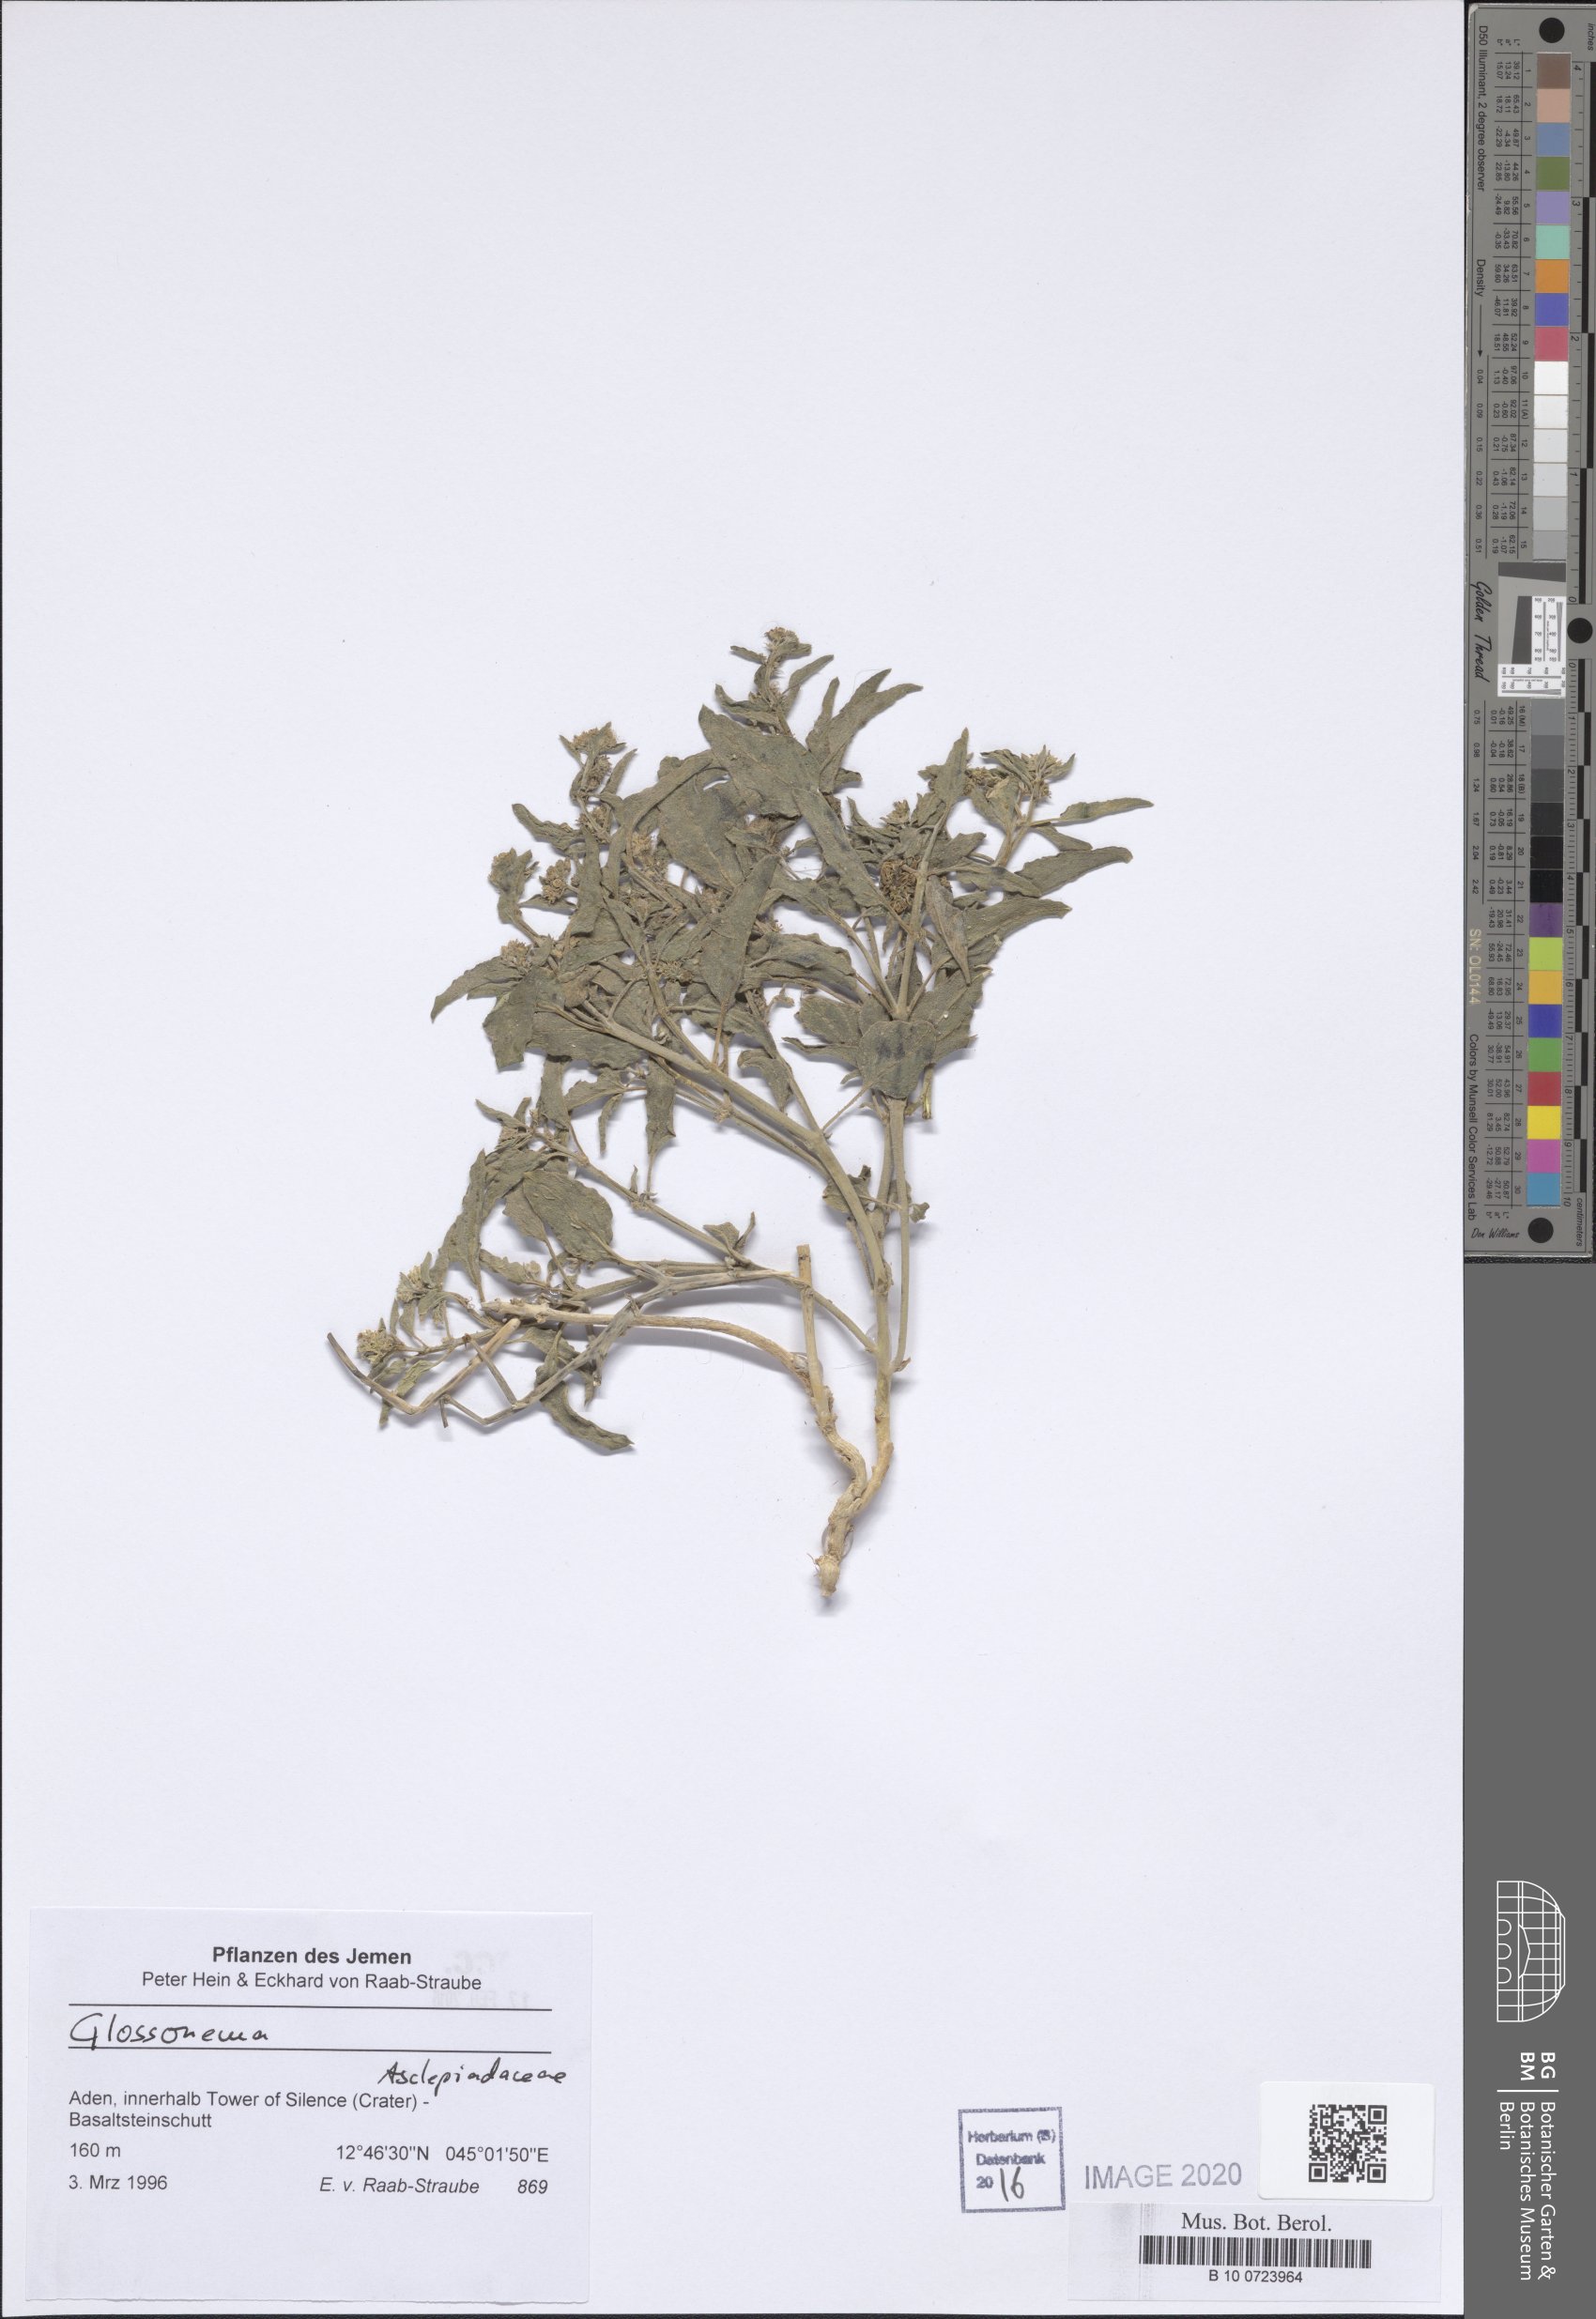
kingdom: Plantae
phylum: Tracheophyta
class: Magnoliopsida
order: Gentianales
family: Apocynaceae
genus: Cynanchum
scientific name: Cynanchum boveanum
